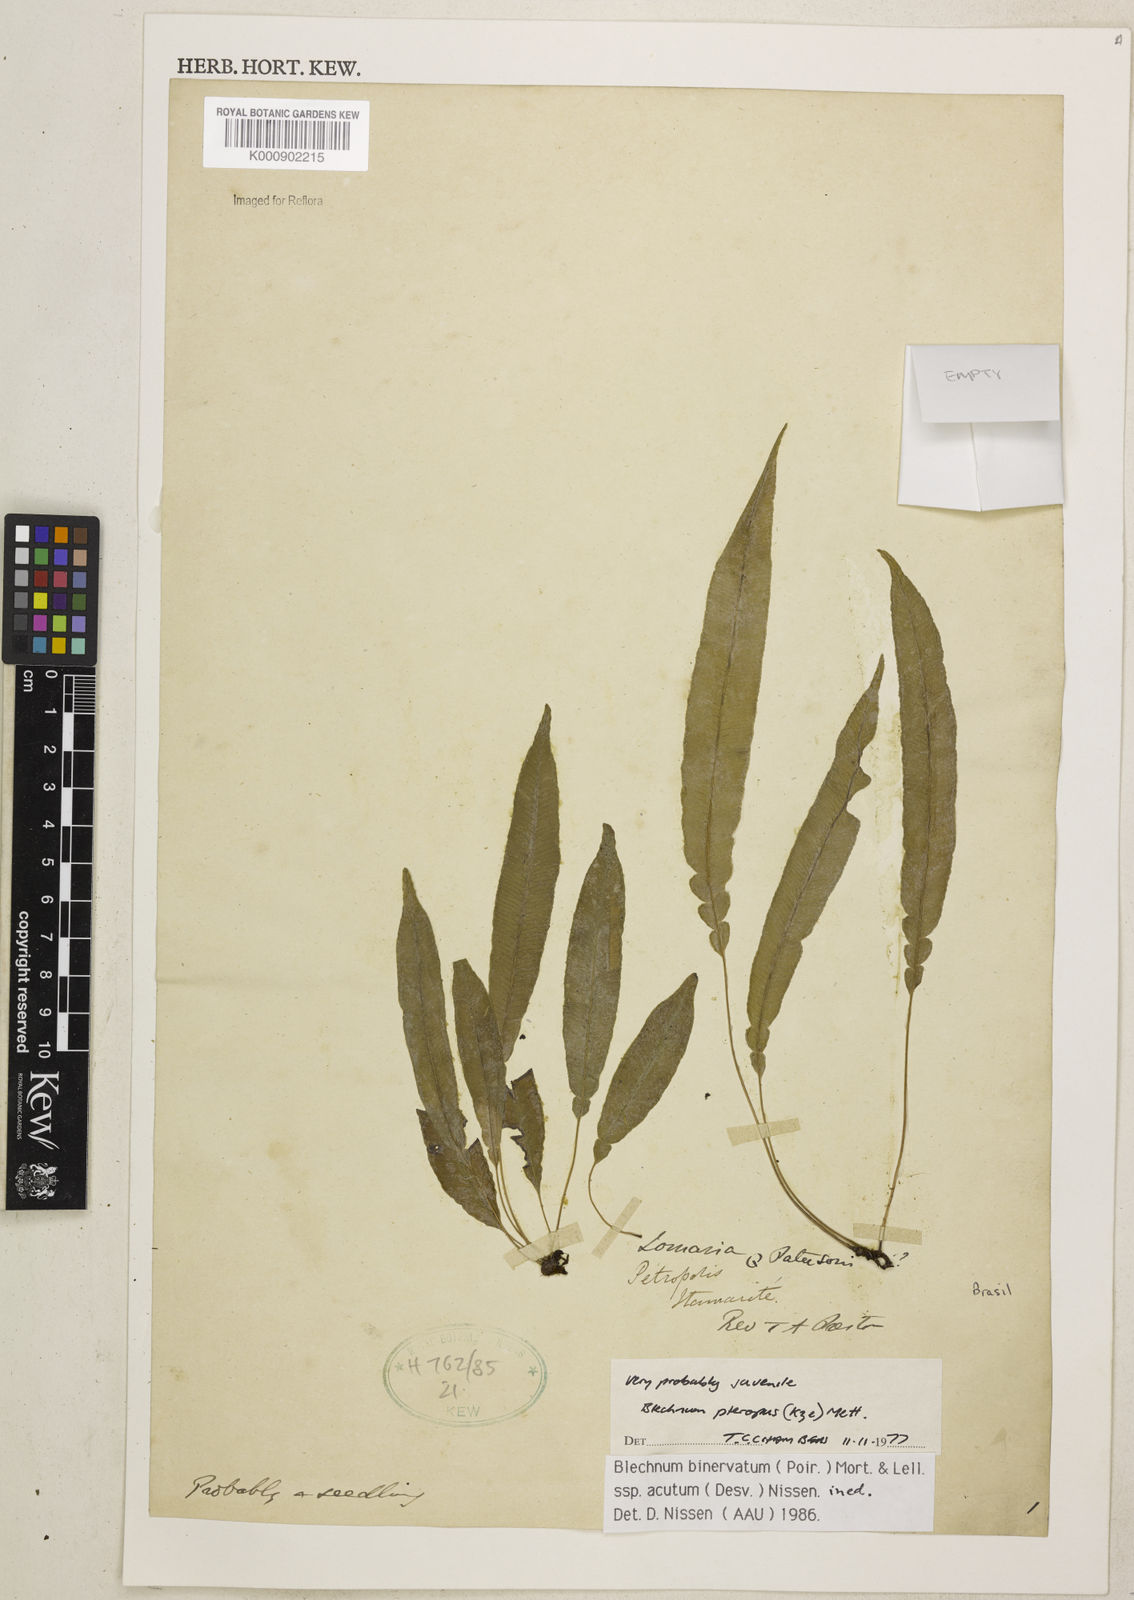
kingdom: Plantae
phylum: Tracheophyta
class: Polypodiopsida
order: Polypodiales
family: Blechnaceae
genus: Lomaridium
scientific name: Lomaridium pteropus
